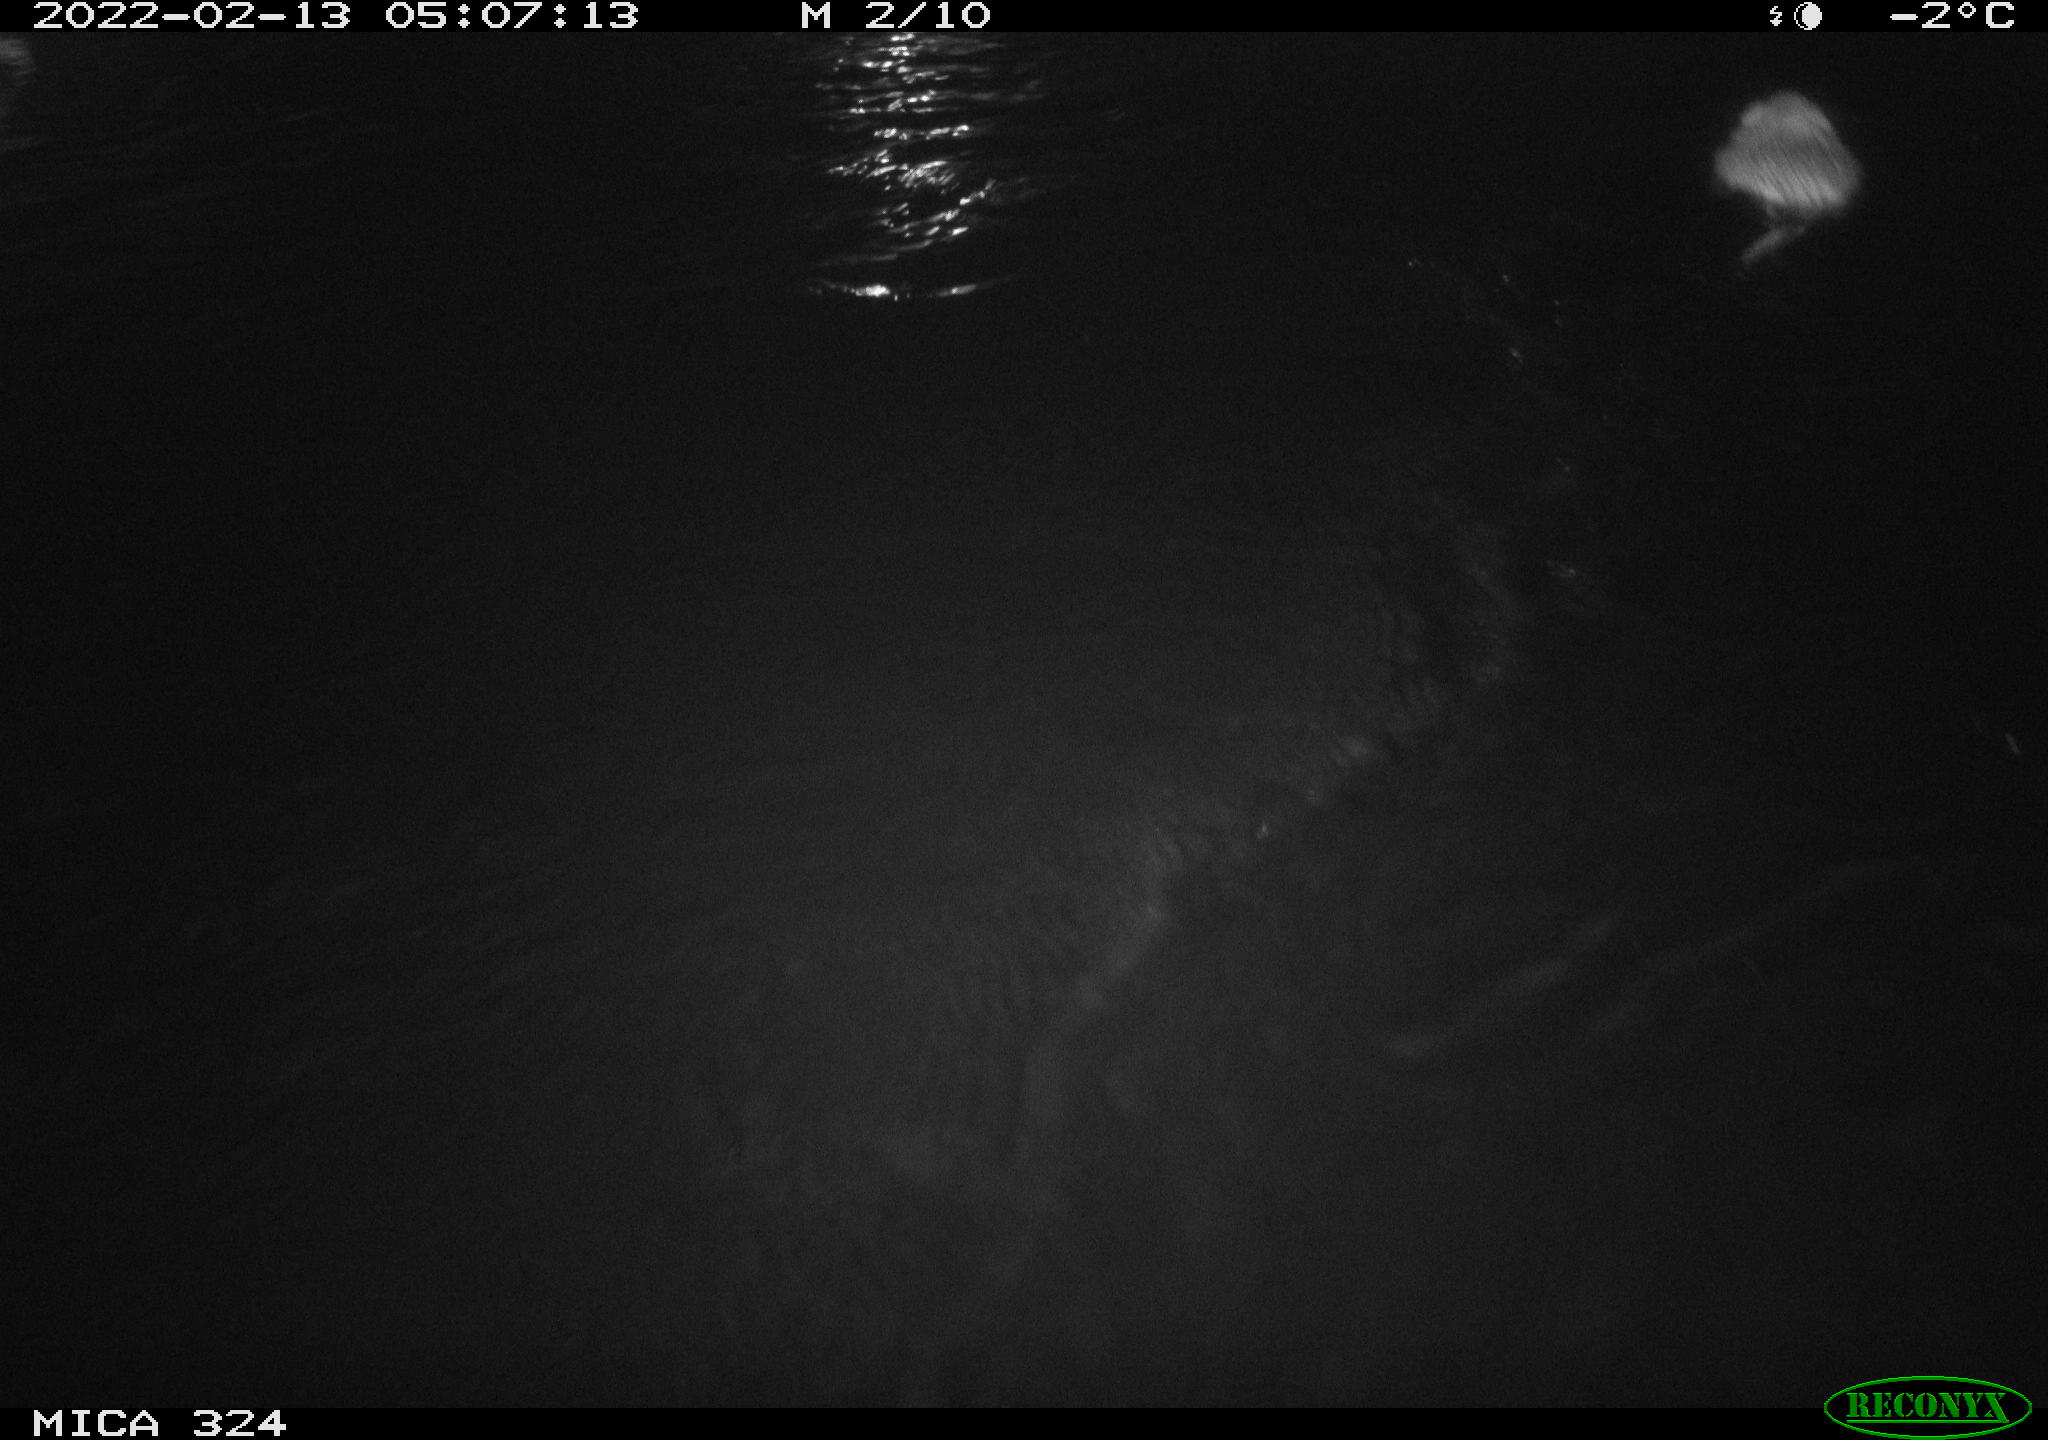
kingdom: Animalia
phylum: Chordata
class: Mammalia
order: Rodentia
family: Cricetidae
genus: Ondatra
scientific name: Ondatra zibethicus
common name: Muskrat
